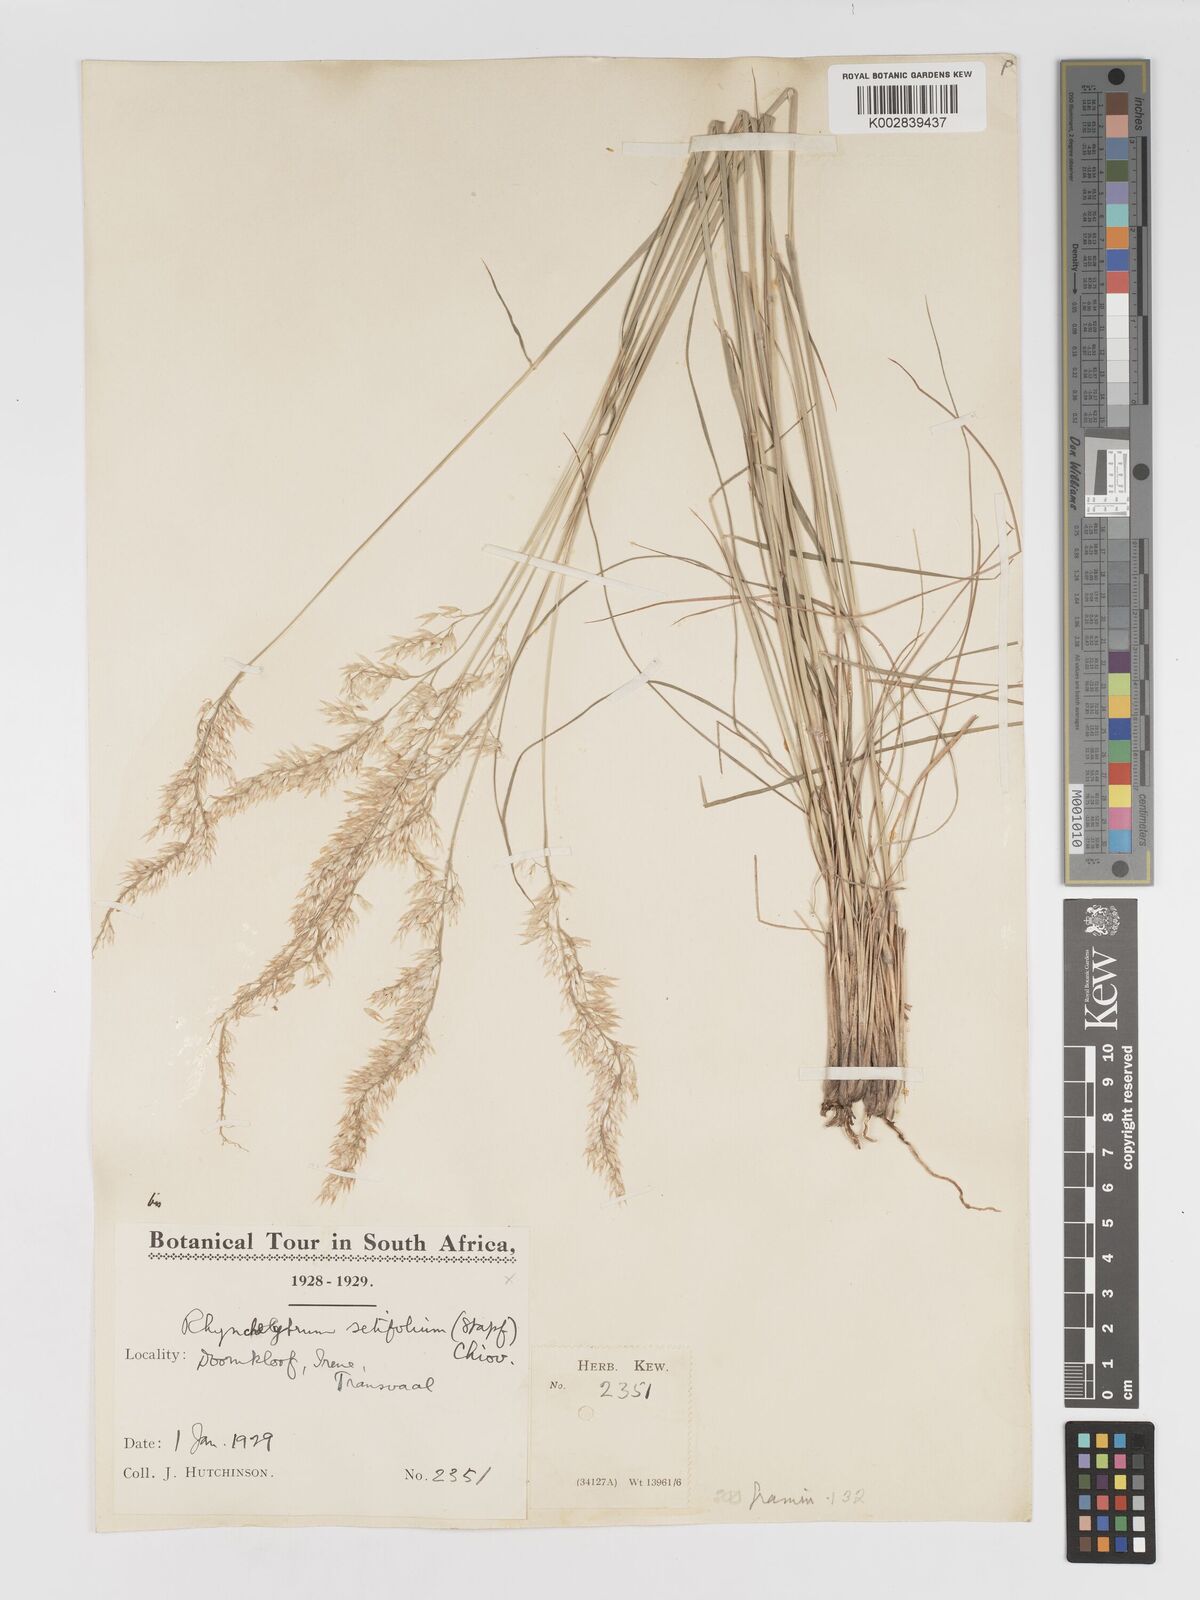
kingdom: Plantae
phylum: Tracheophyta
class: Liliopsida
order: Poales
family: Poaceae
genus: Melinis
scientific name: Melinis nerviglumis
